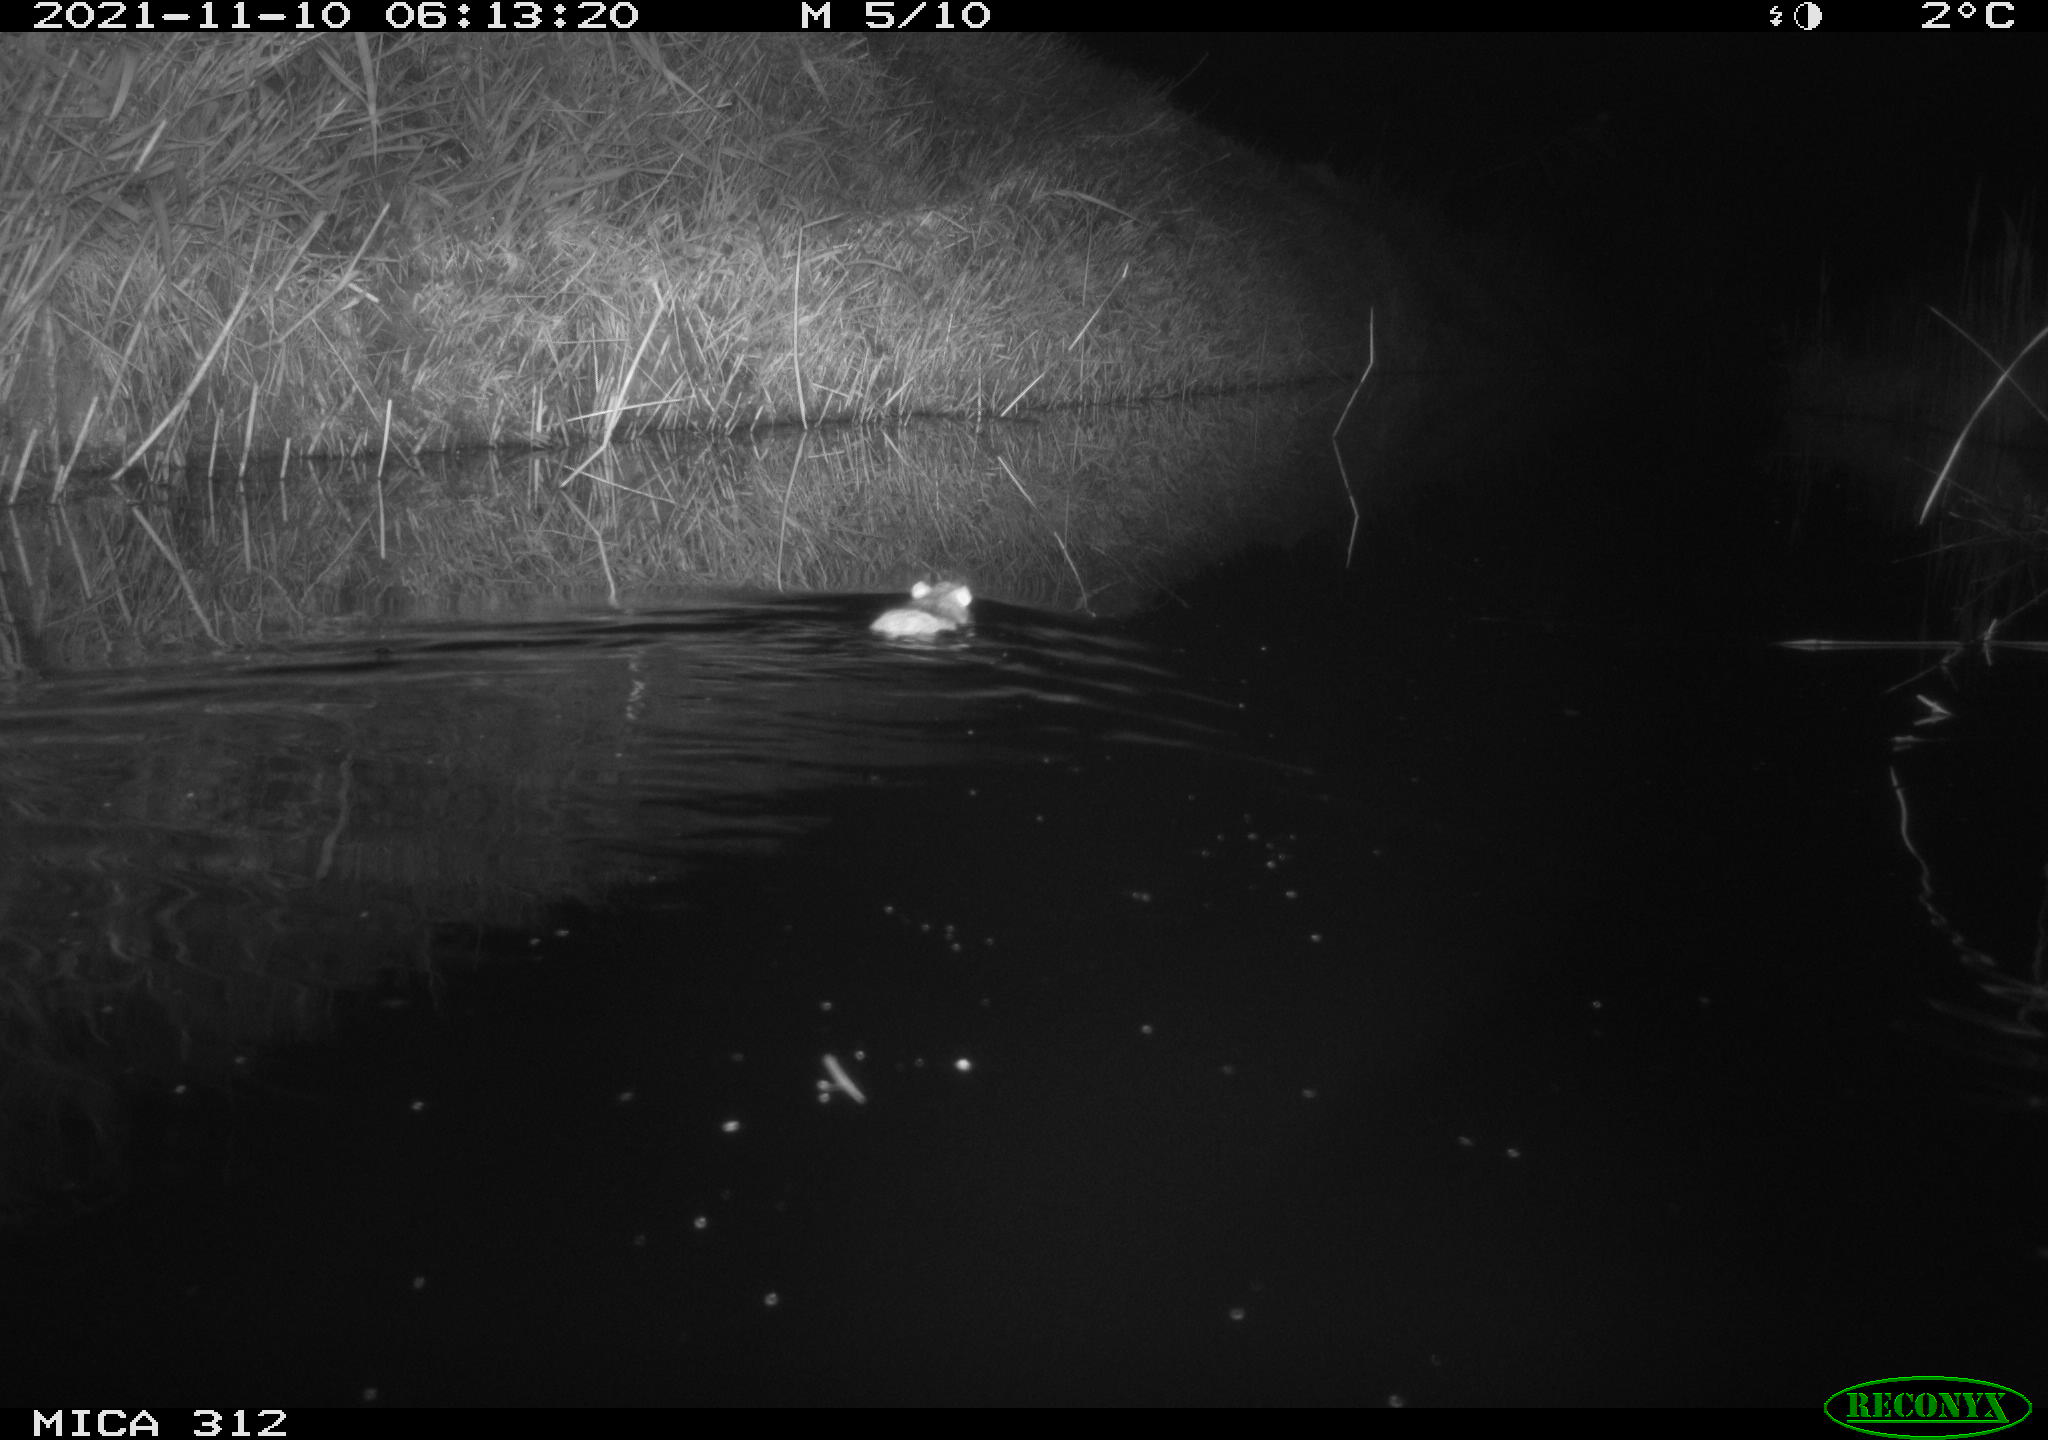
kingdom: Animalia
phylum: Chordata
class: Mammalia
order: Rodentia
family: Muridae
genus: Rattus
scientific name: Rattus norvegicus
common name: Brown rat
